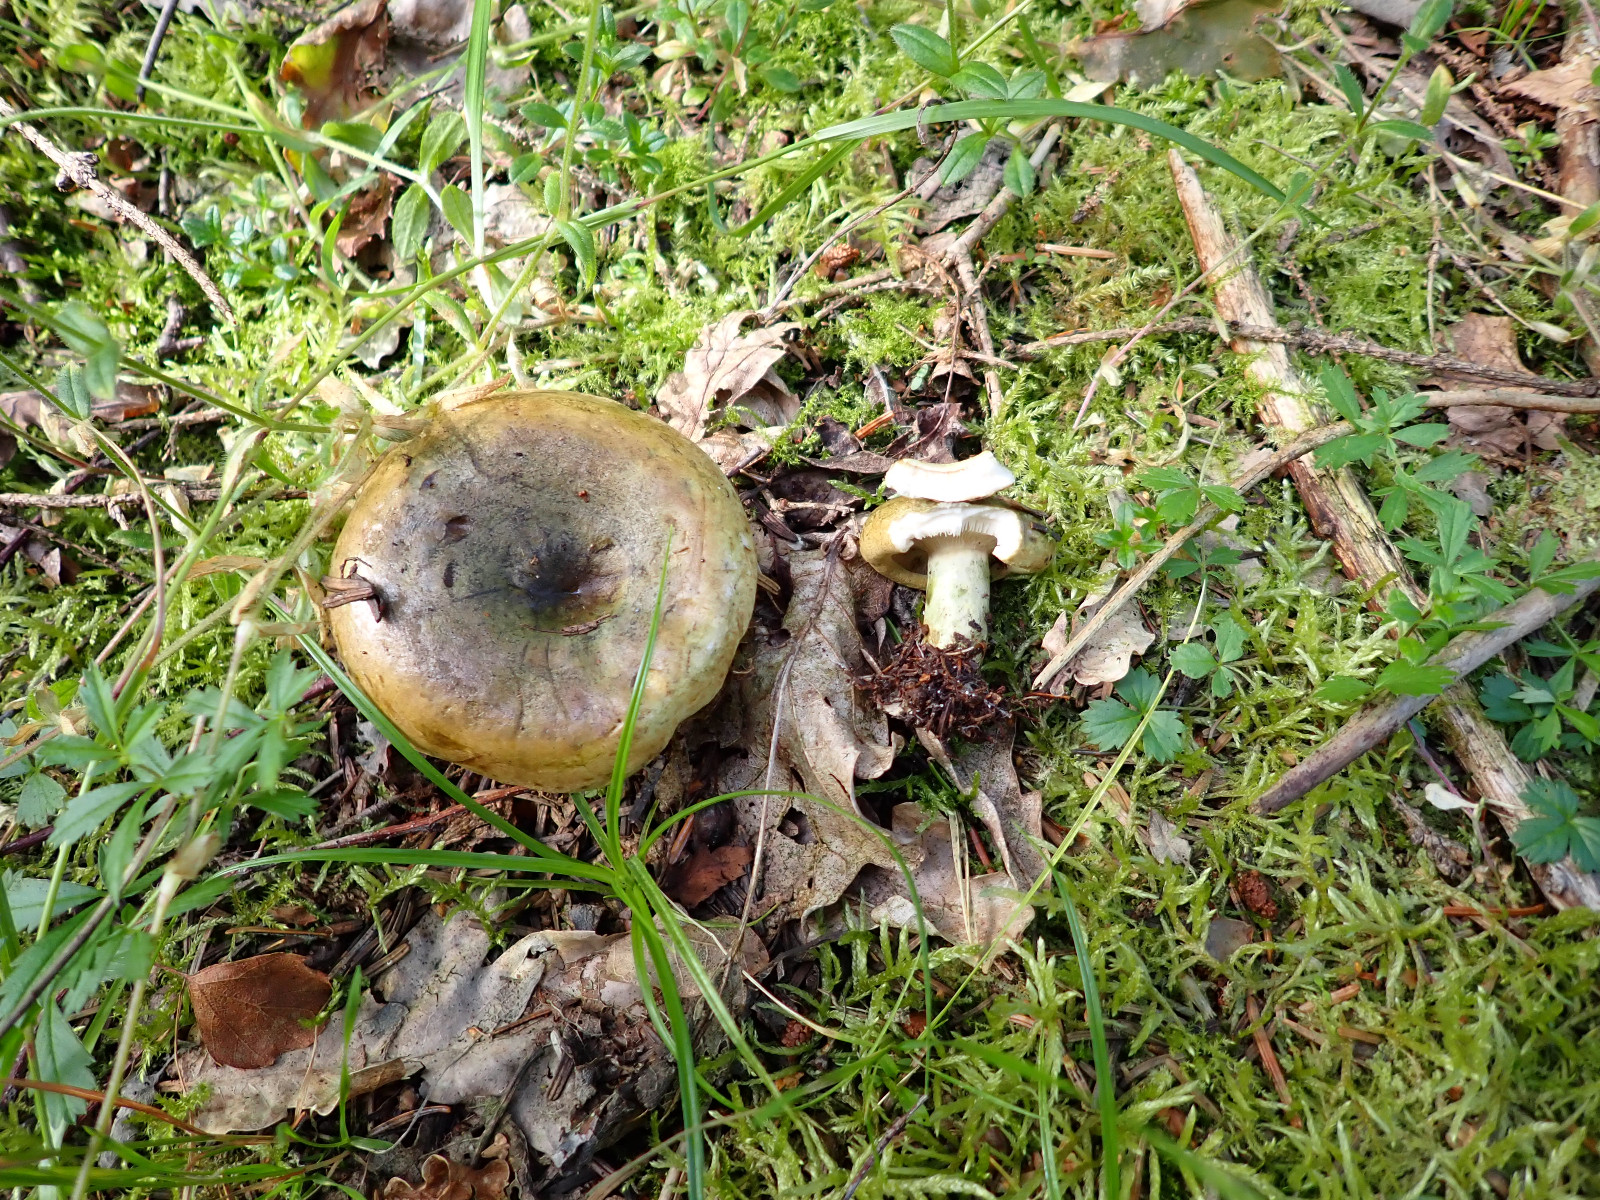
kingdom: Fungi
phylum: Basidiomycota
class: Agaricomycetes
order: Russulales
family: Russulaceae
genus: Lactarius
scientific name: Lactarius necator
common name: manddraber-mælkehat
